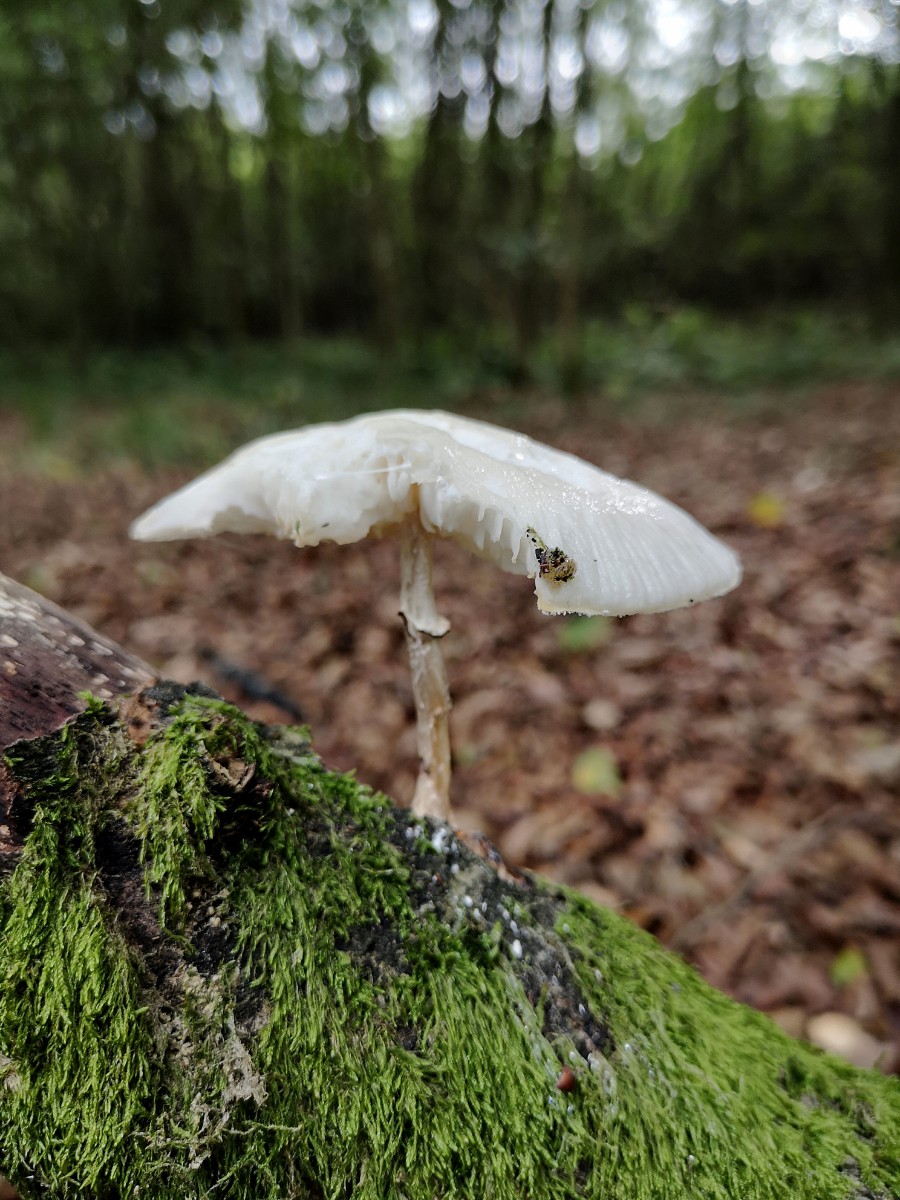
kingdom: Fungi
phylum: Basidiomycota
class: Agaricomycetes
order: Agaricales
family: Physalacriaceae
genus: Mucidula
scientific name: Mucidula mucida
